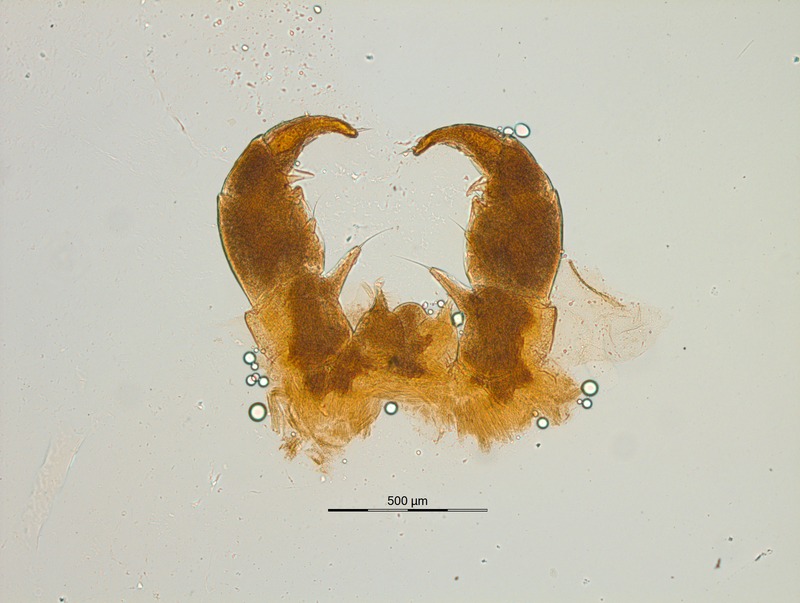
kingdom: Animalia
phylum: Arthropoda
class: Diplopoda
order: Glomerida
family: Glomeridae
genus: Glomeris
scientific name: Glomeris distichella
